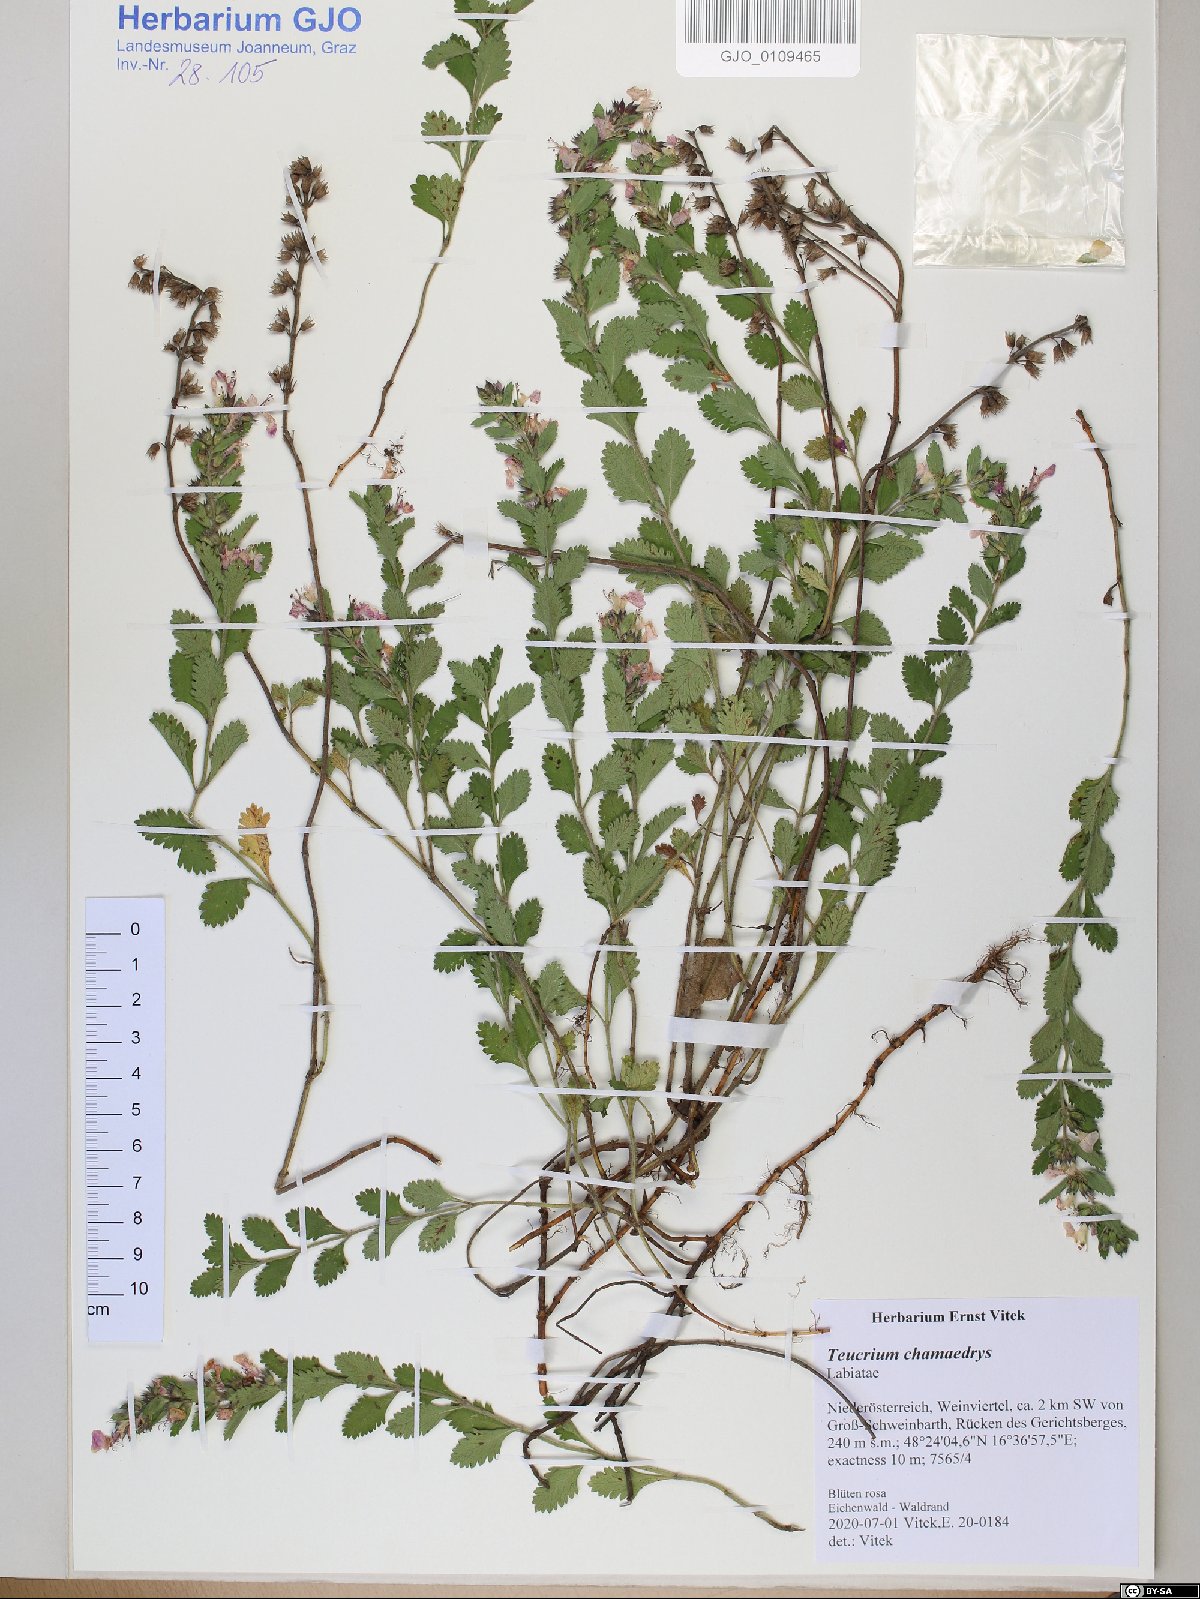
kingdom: Plantae
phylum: Tracheophyta
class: Magnoliopsida
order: Lamiales
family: Lamiaceae
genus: Teucrium
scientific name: Teucrium chamaedrys
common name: Wall germander
